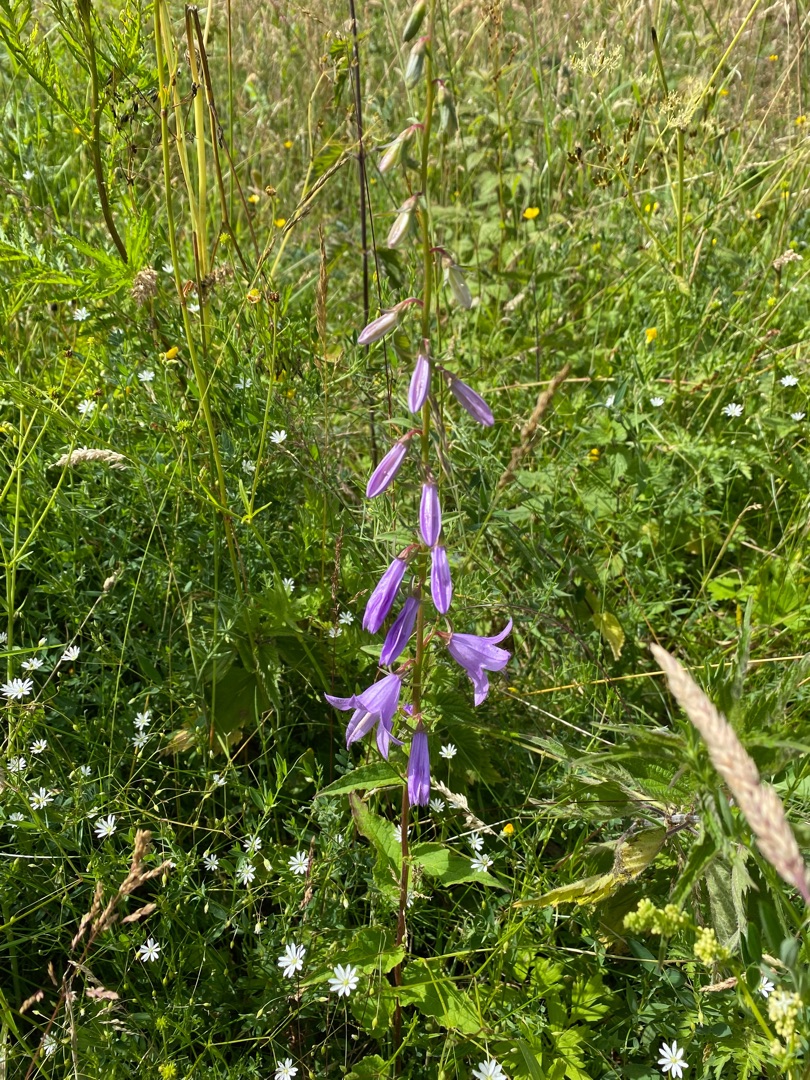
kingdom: Plantae
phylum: Tracheophyta
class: Magnoliopsida
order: Asterales
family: Campanulaceae
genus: Campanula
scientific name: Campanula rapunculoides
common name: Ensidig klokke
